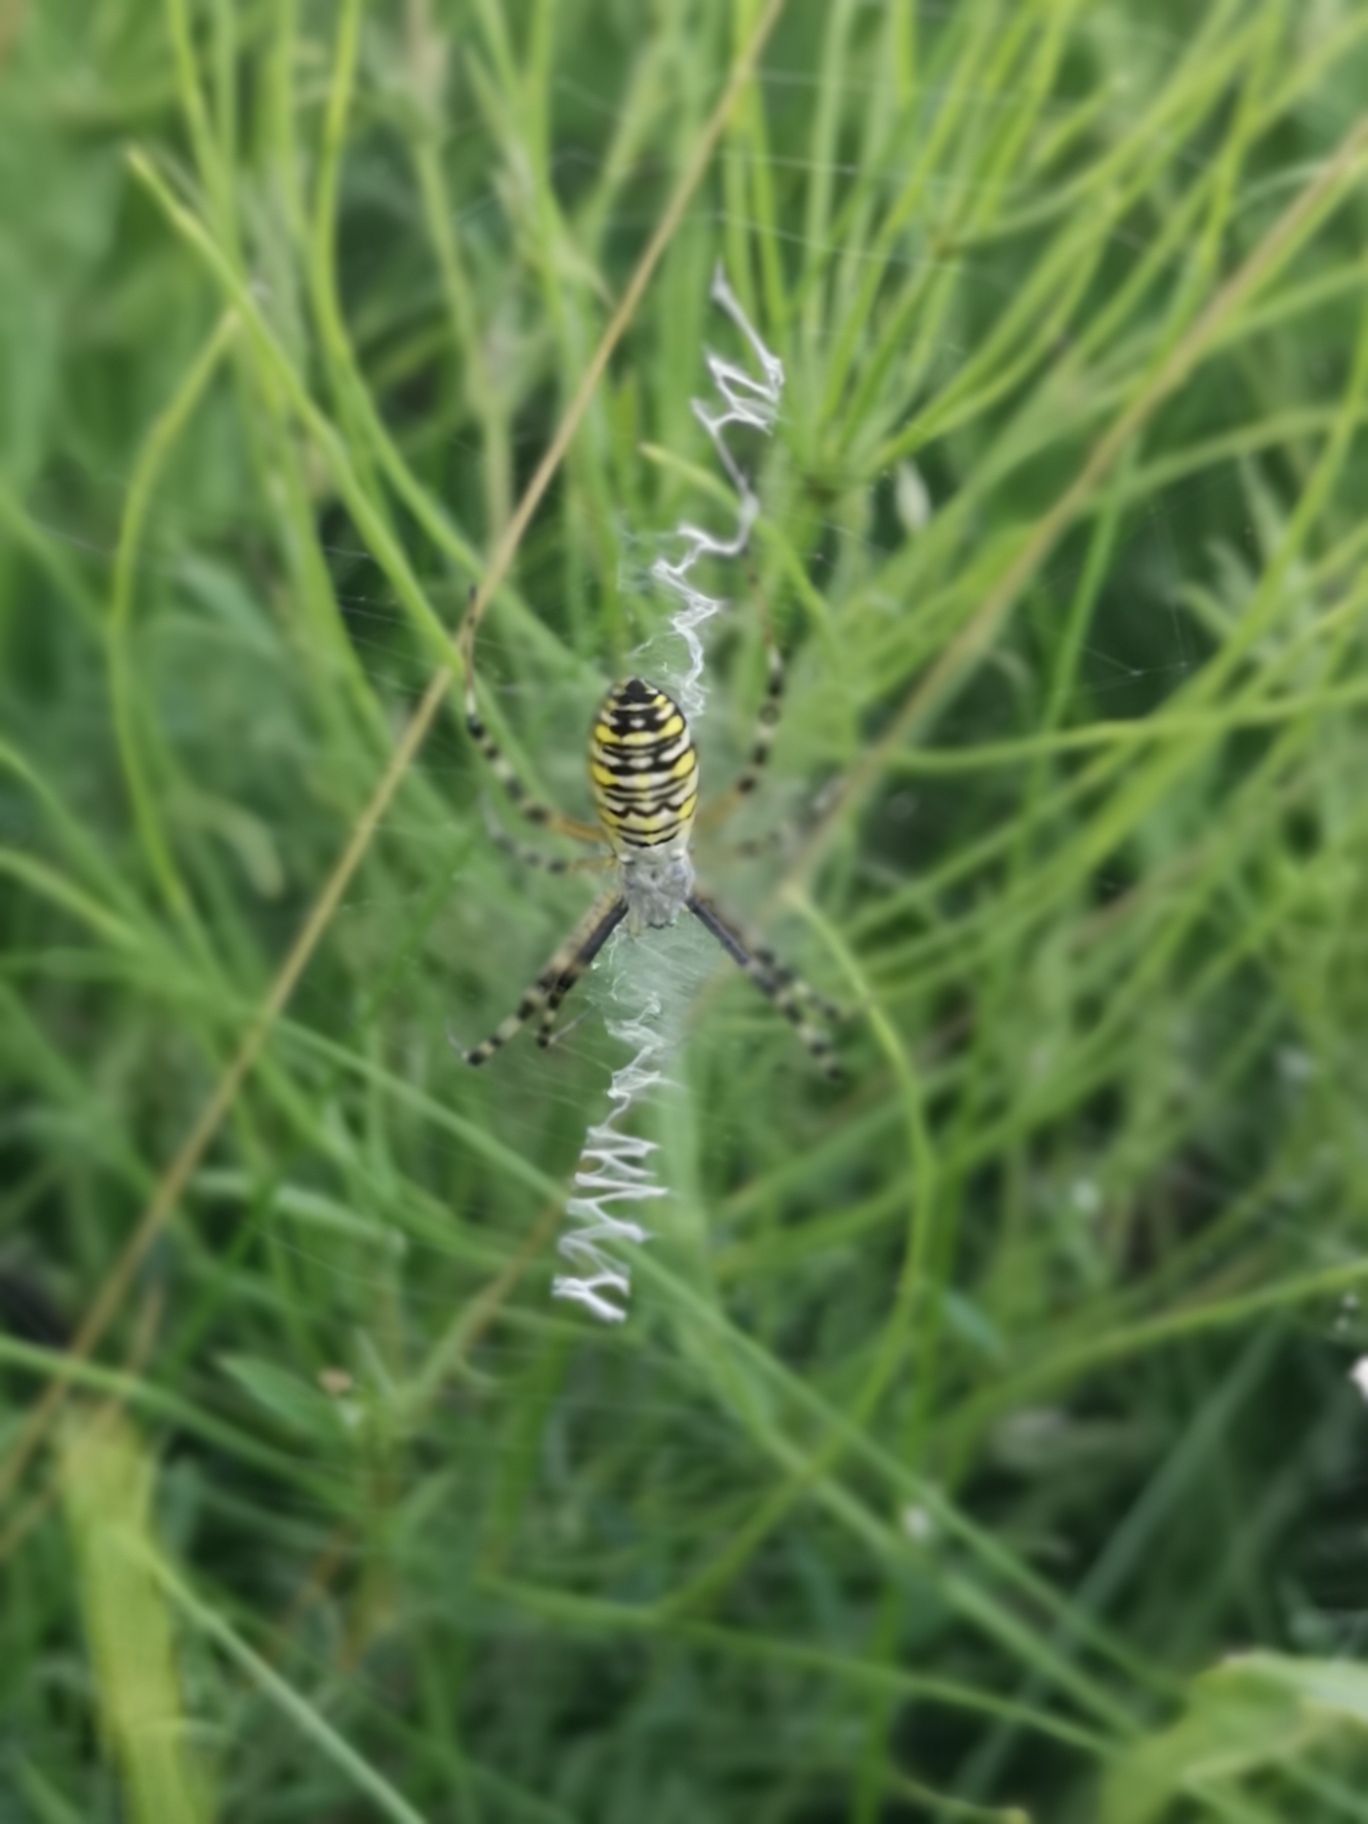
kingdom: Animalia
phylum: Arthropoda
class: Arachnida
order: Araneae
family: Araneidae
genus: Argiope
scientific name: Argiope bruennichi
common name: Hvepseedderkop
